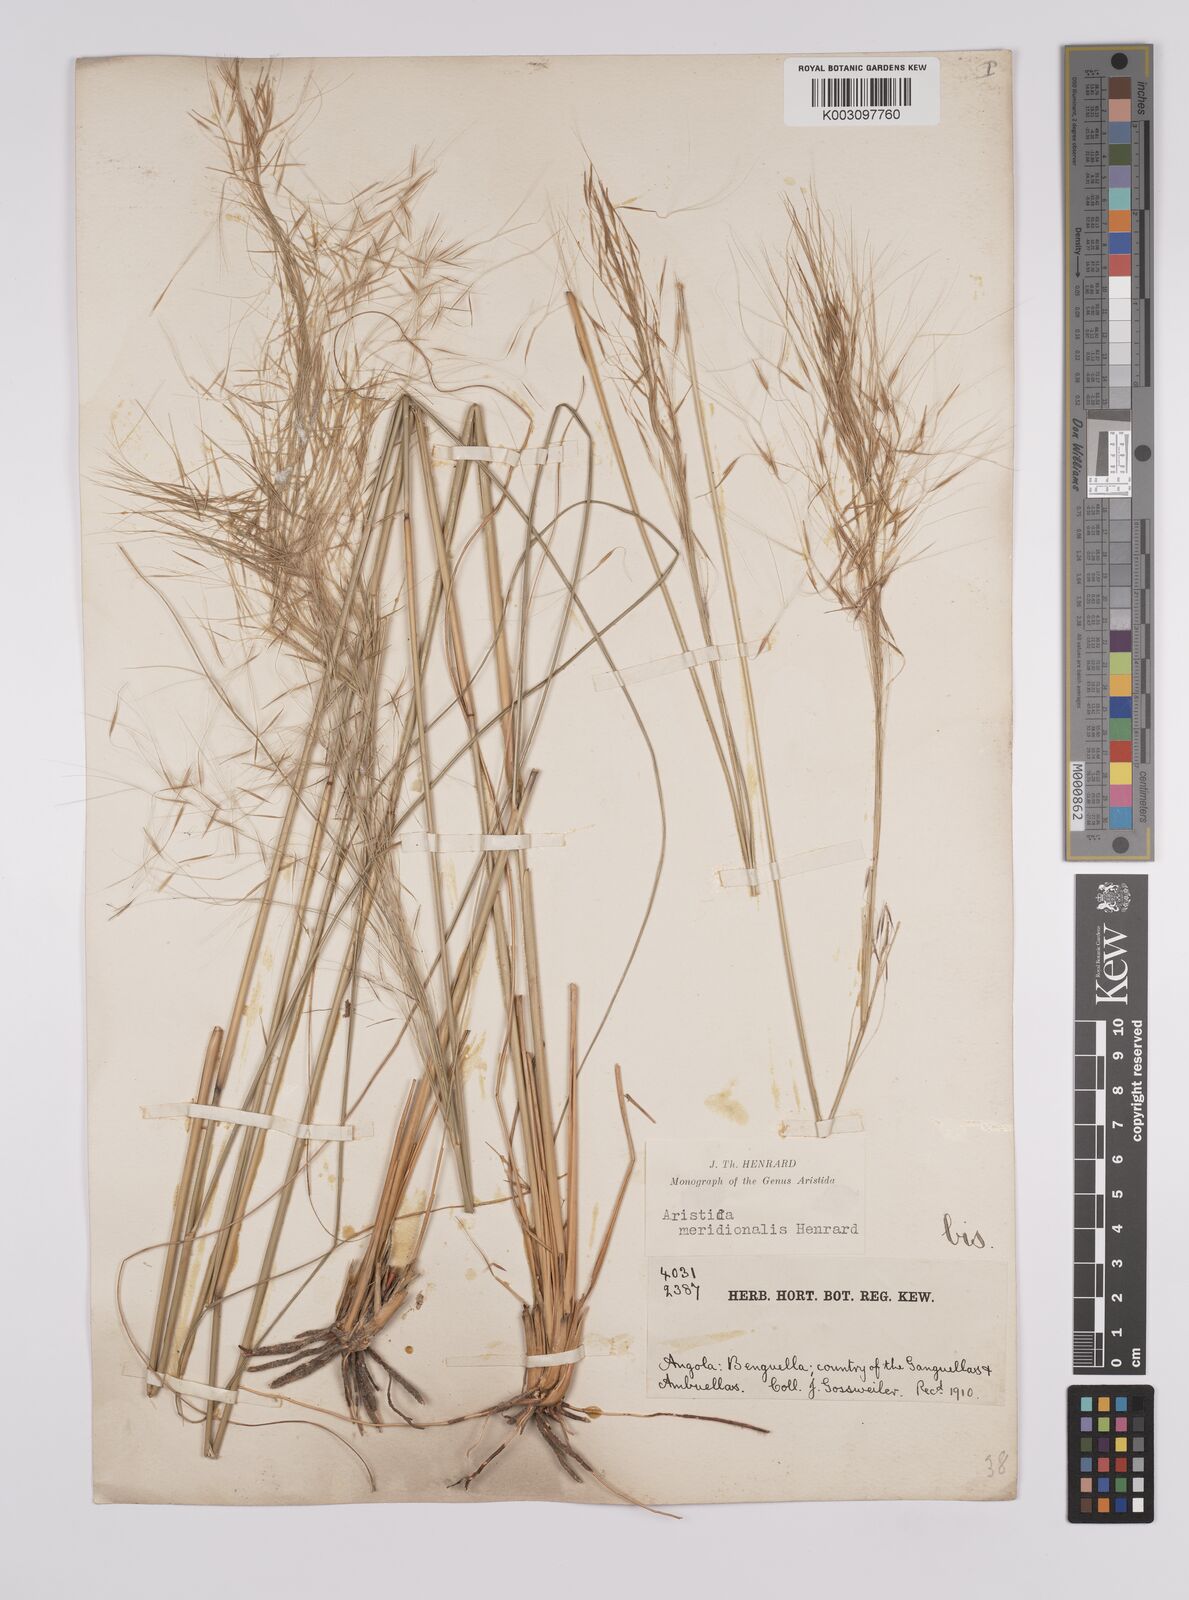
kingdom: Plantae
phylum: Tracheophyta
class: Liliopsida
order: Poales
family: Poaceae
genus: Aristida
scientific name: Aristida meridionalis
